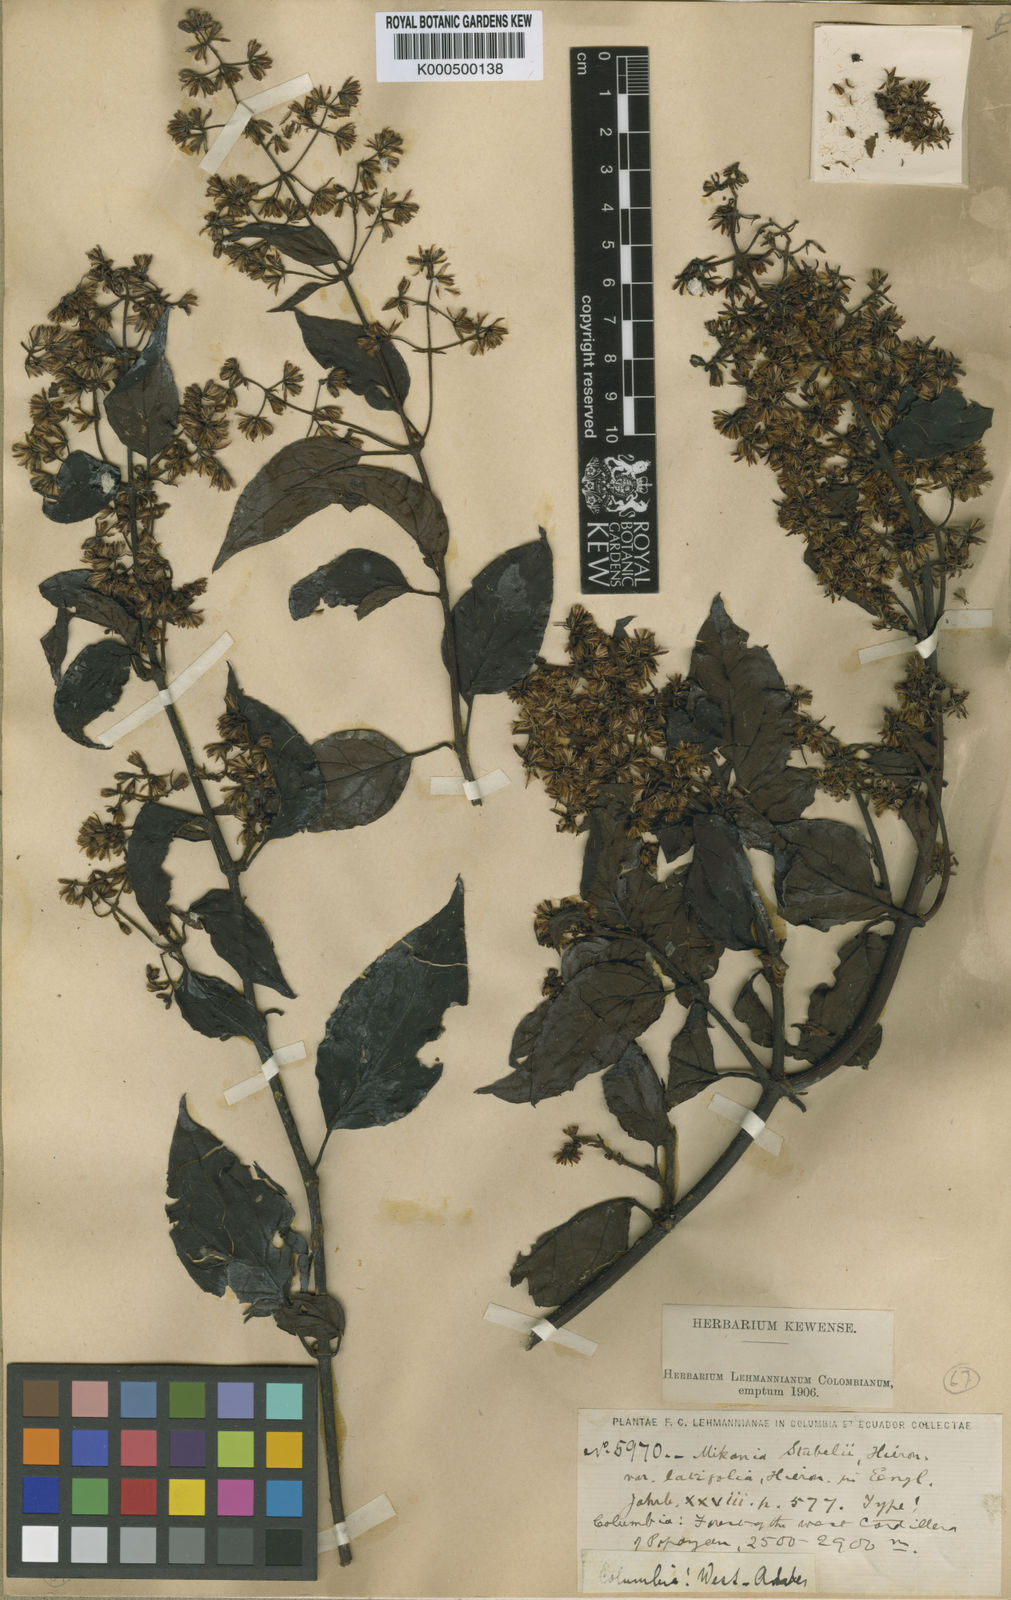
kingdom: Plantae
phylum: Tracheophyta
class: Magnoliopsida
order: Asterales
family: Asteraceae
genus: Mikania
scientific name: Mikania stuebelii
